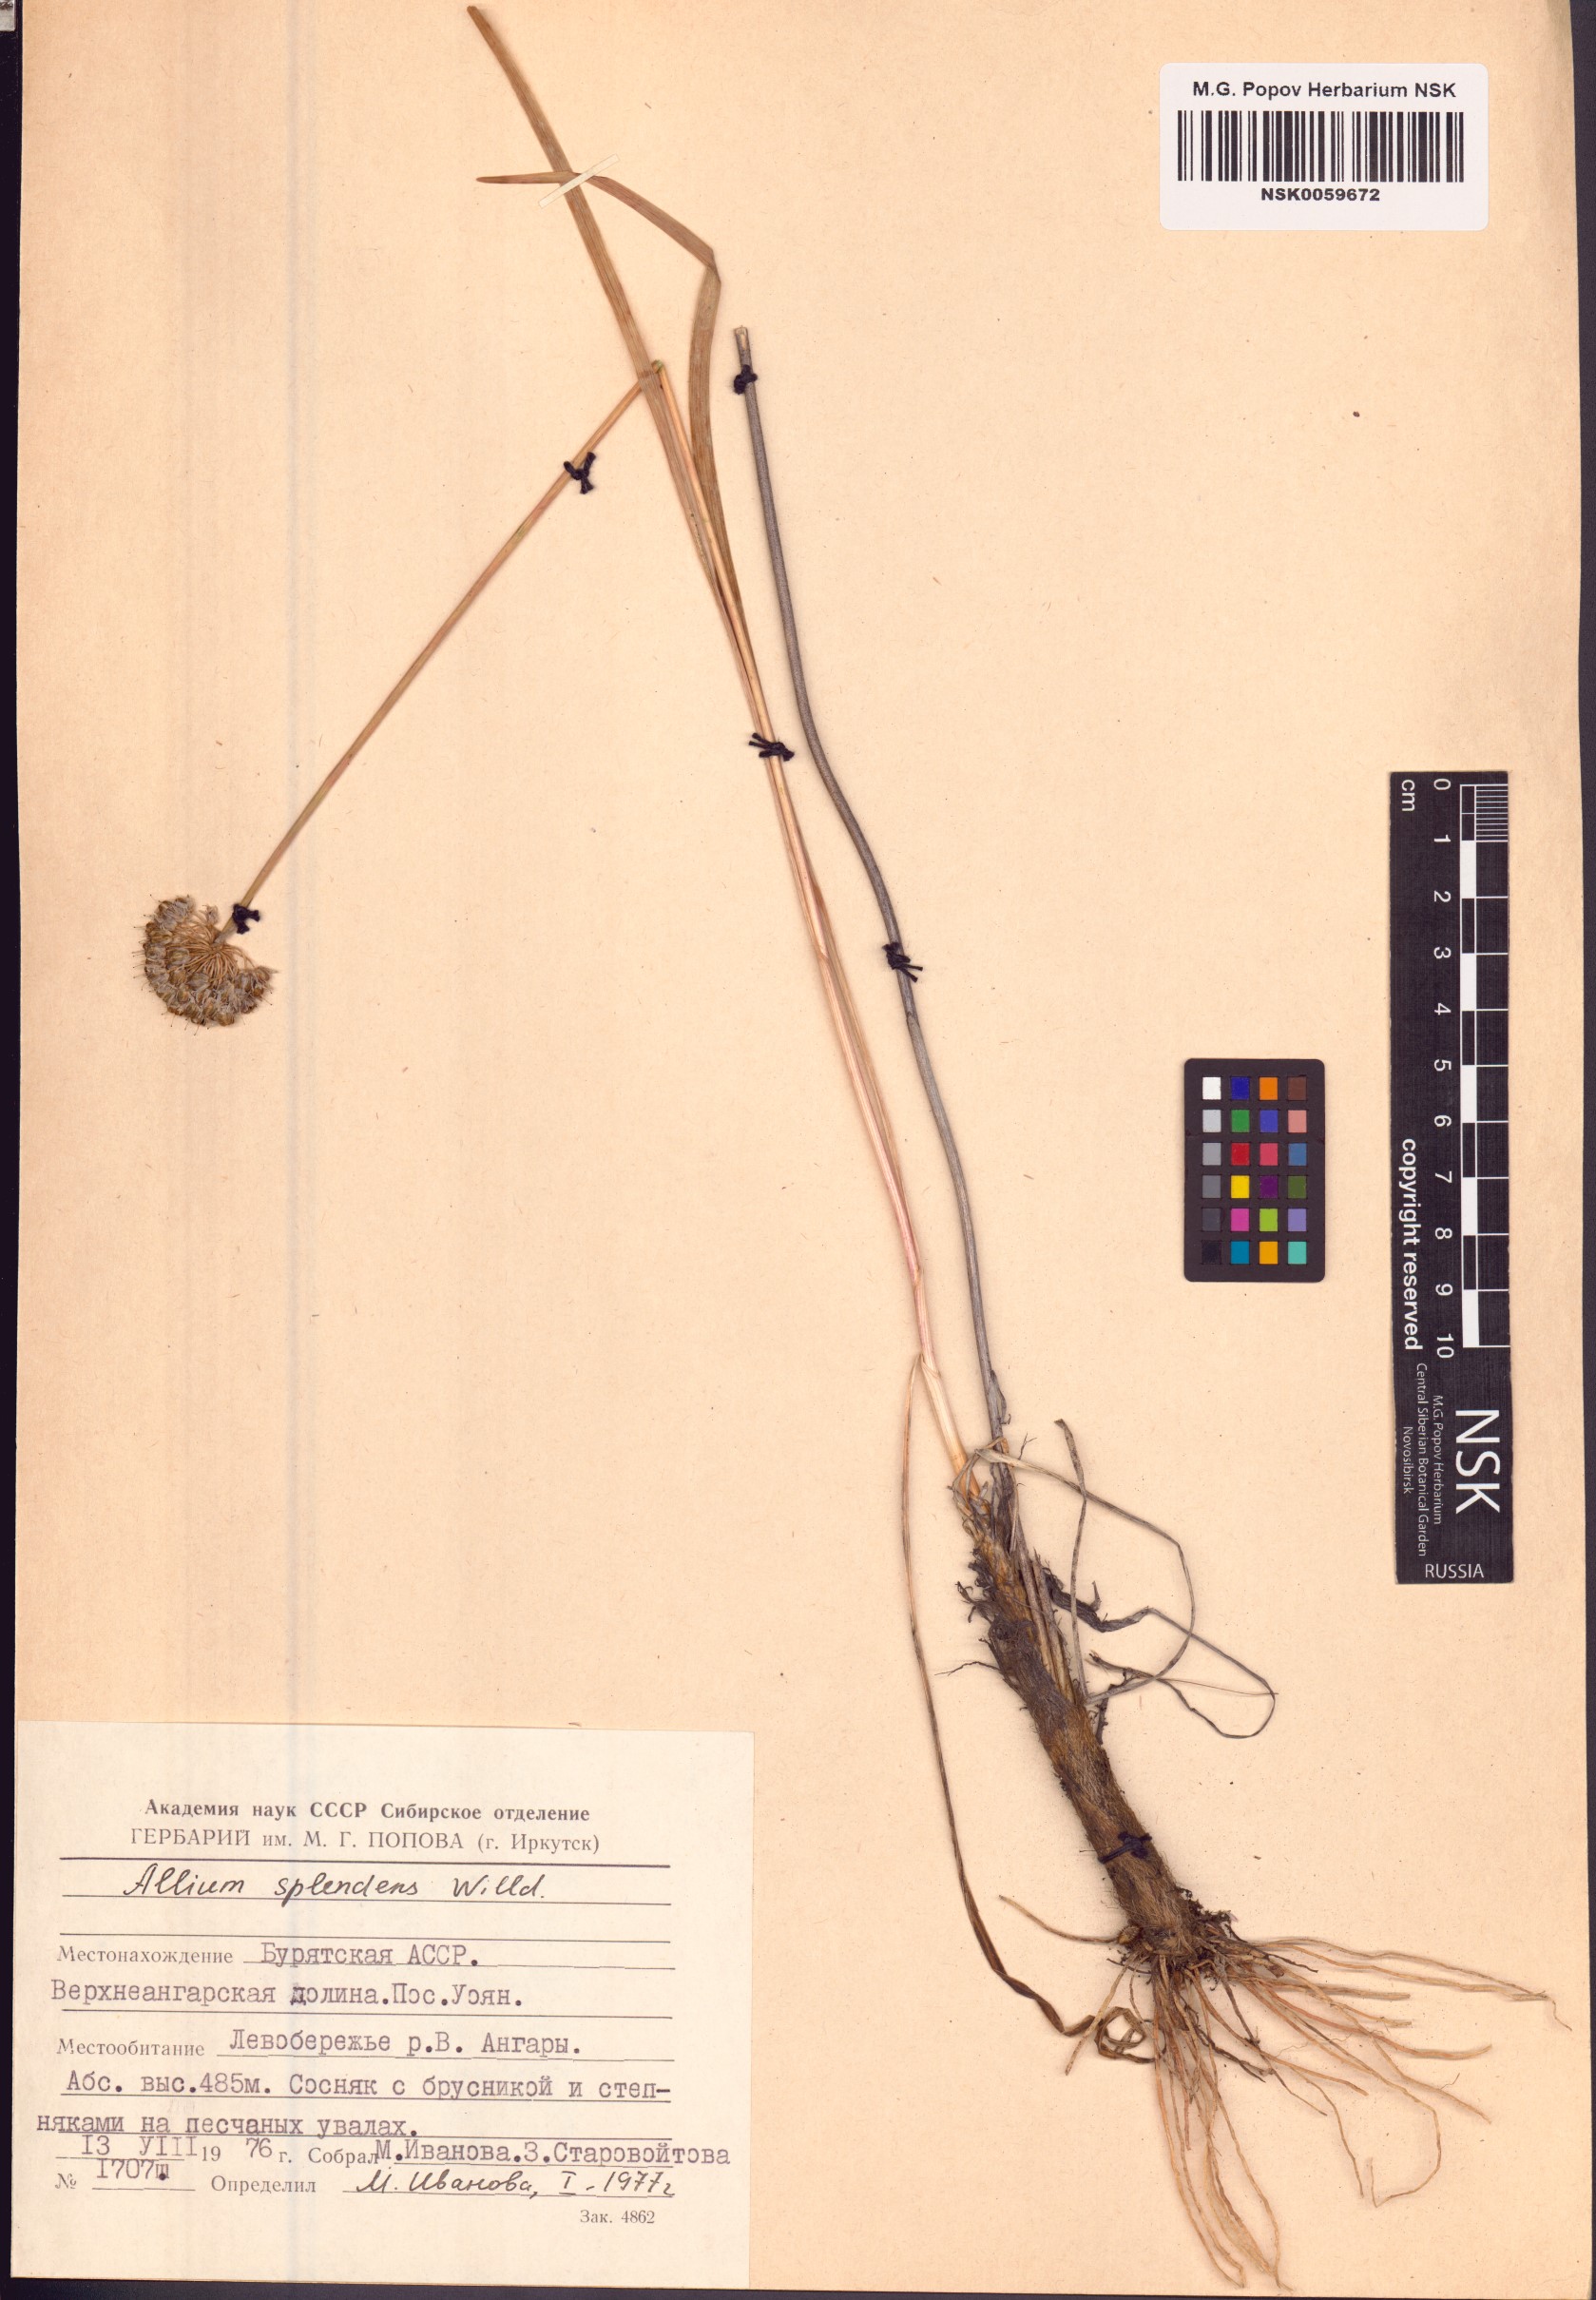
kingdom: Plantae
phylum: Tracheophyta
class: Liliopsida
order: Asparagales
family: Amaryllidaceae
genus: Allium
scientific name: Allium splendens
